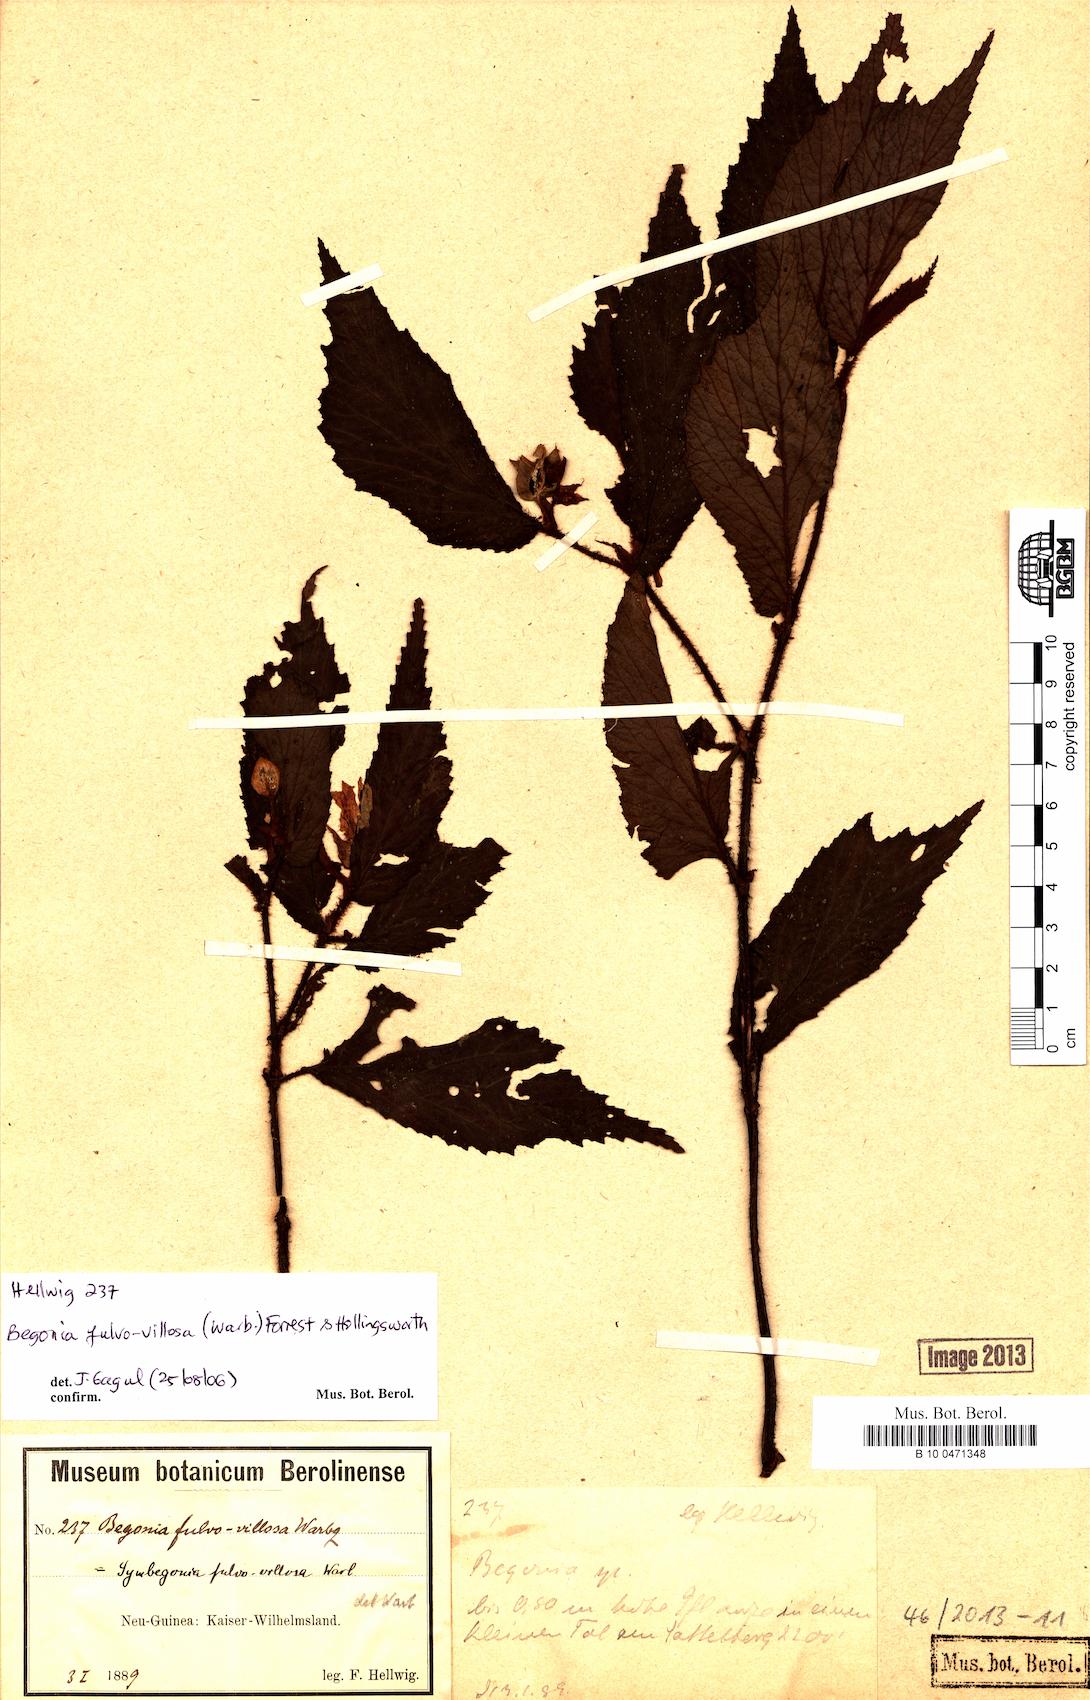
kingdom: Plantae
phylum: Tracheophyta
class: Magnoliopsida
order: Cucurbitales
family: Begoniaceae
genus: Begonia
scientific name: Begonia fulvovillosa
